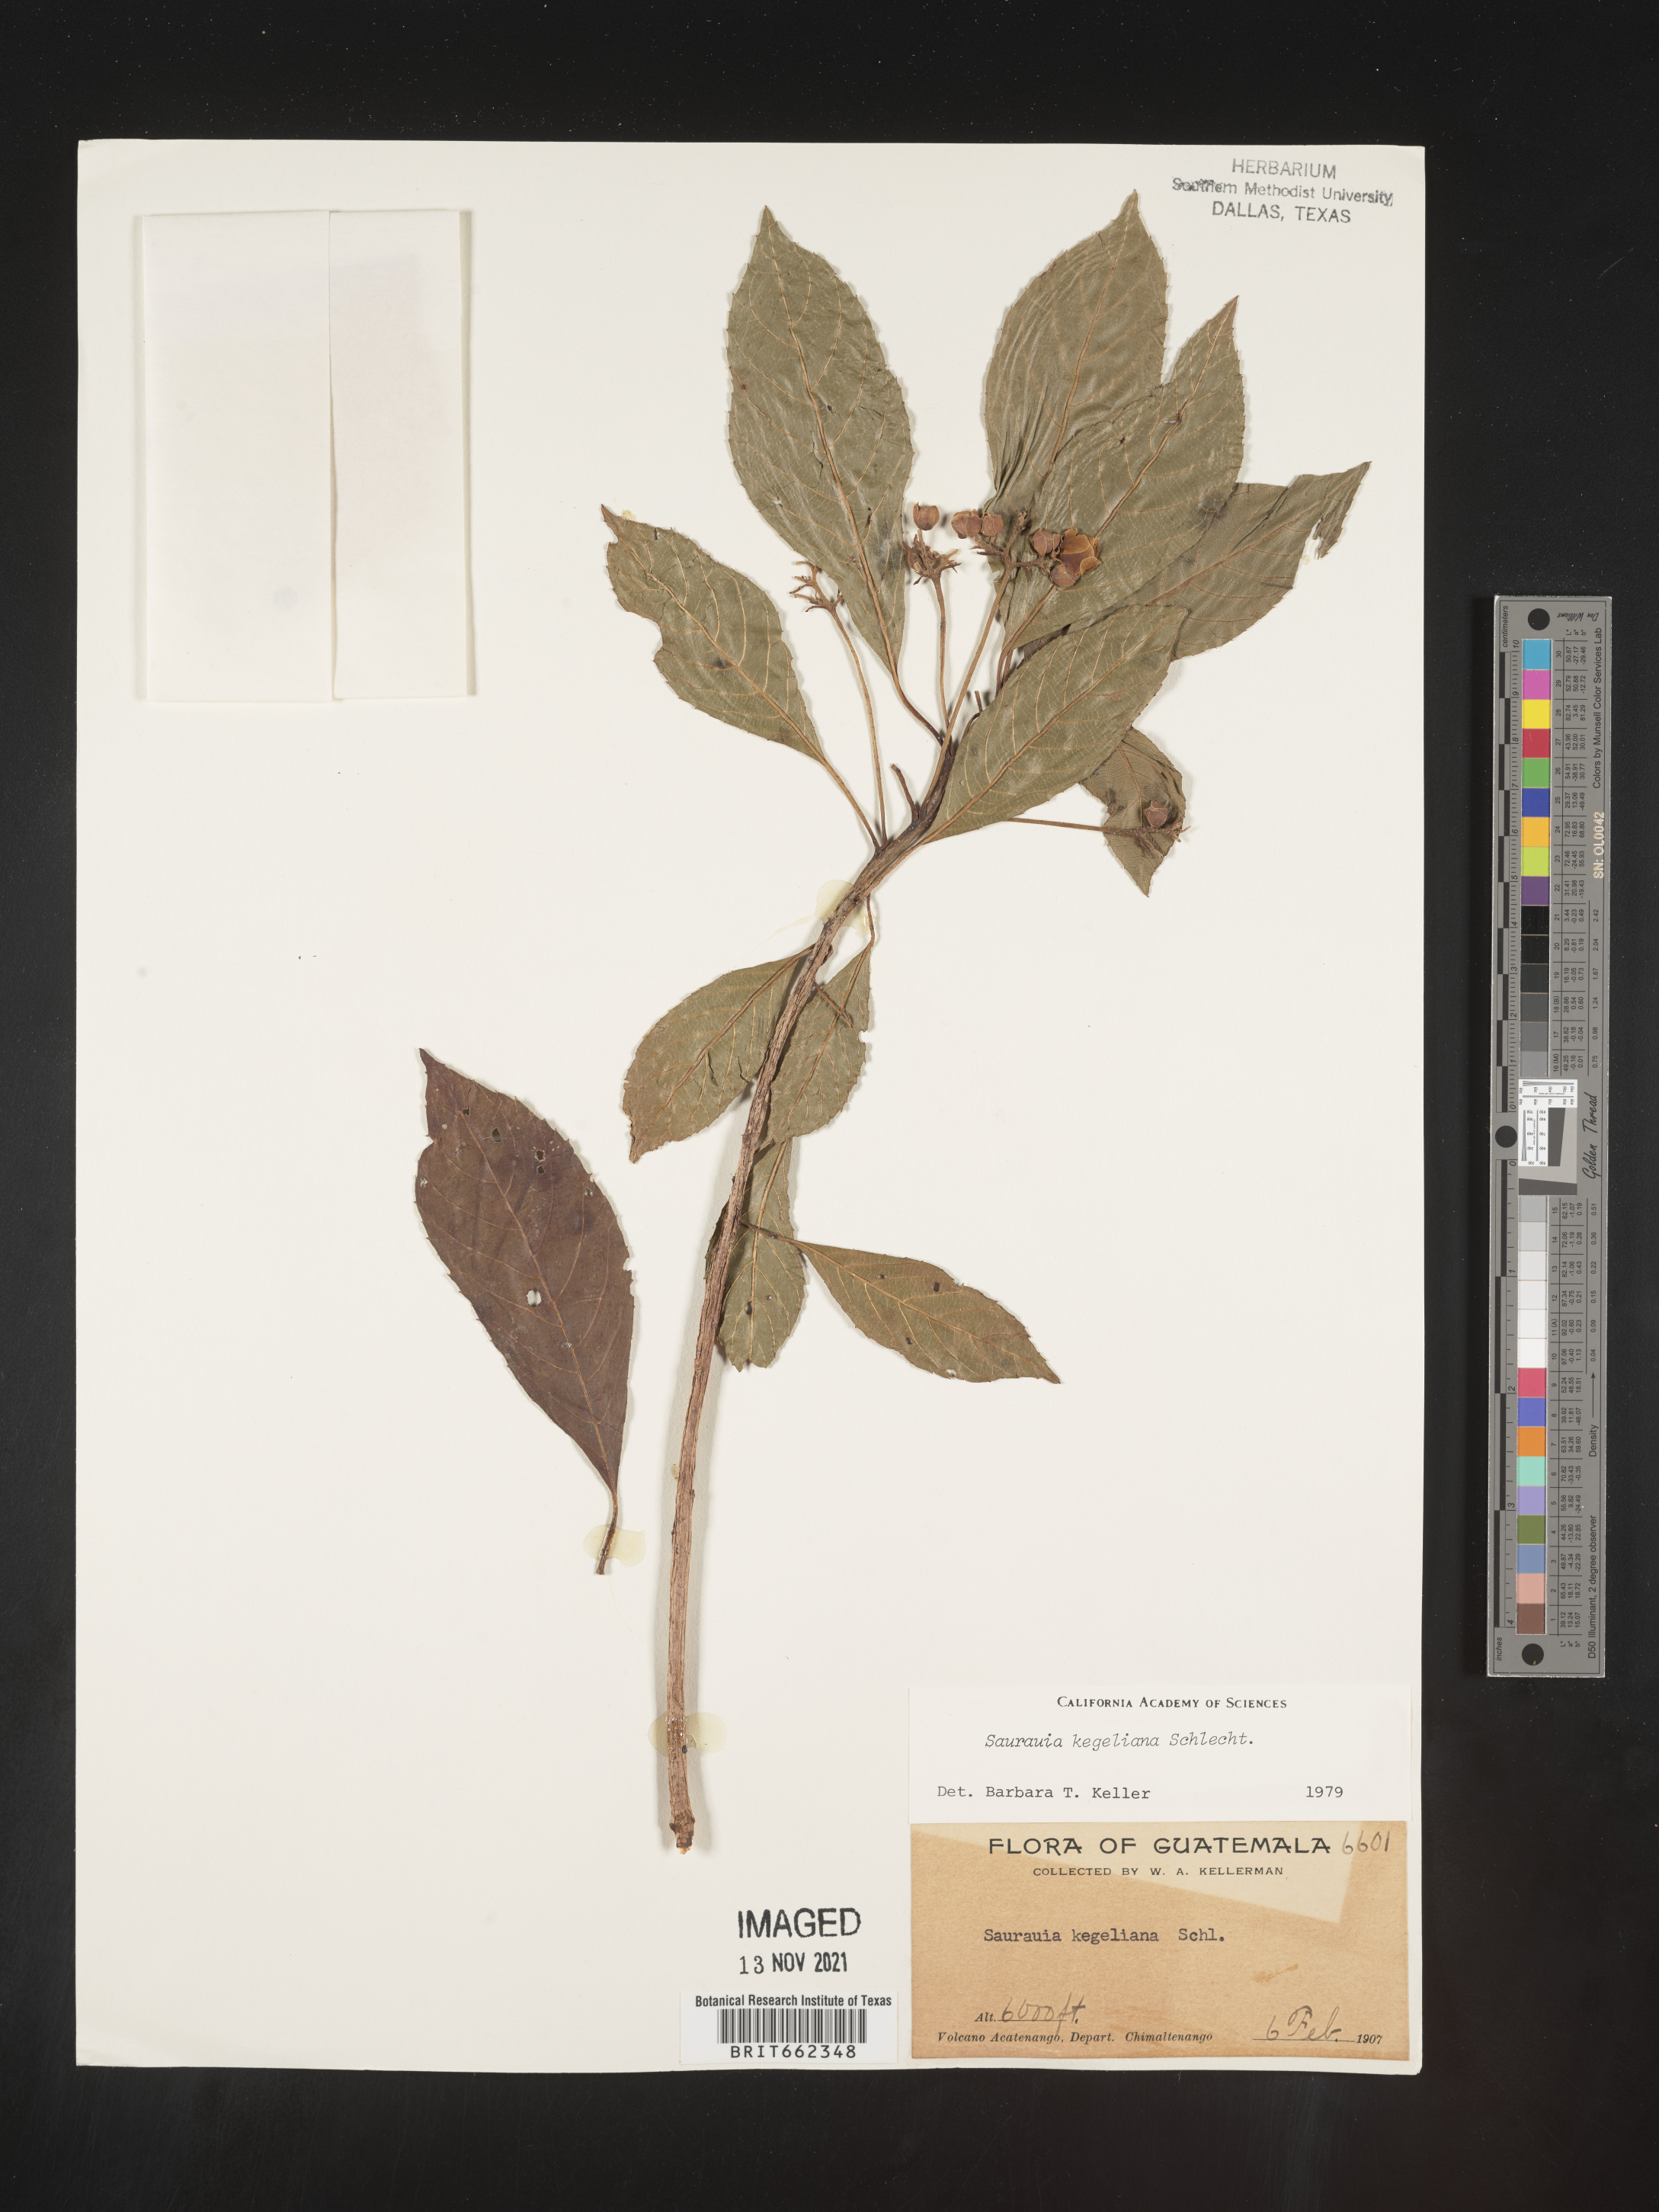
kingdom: Plantae
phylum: Tracheophyta
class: Magnoliopsida
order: Ericales
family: Actinidiaceae
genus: Saurauia
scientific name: Saurauia
